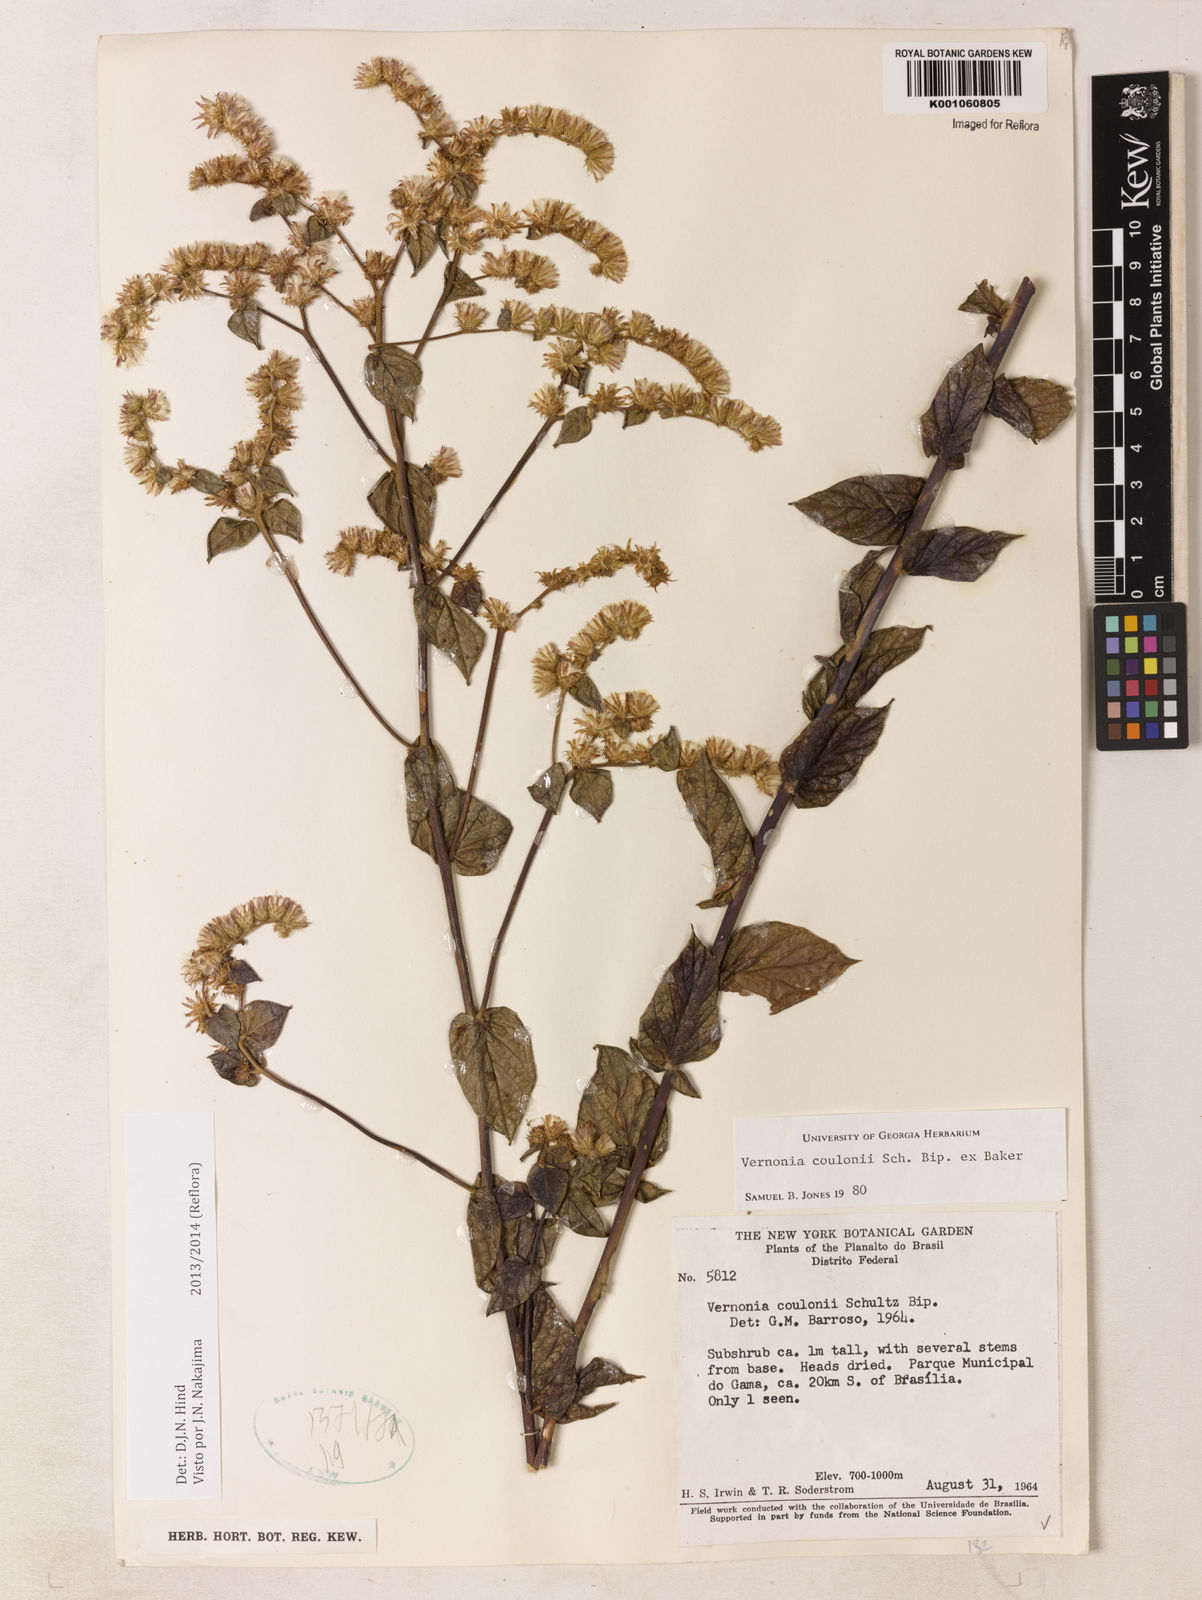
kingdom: Plantae
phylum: Tracheophyta
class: Magnoliopsida
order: Asterales
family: Asteraceae
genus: Lepidaploa
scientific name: Lepidaploa sororia
